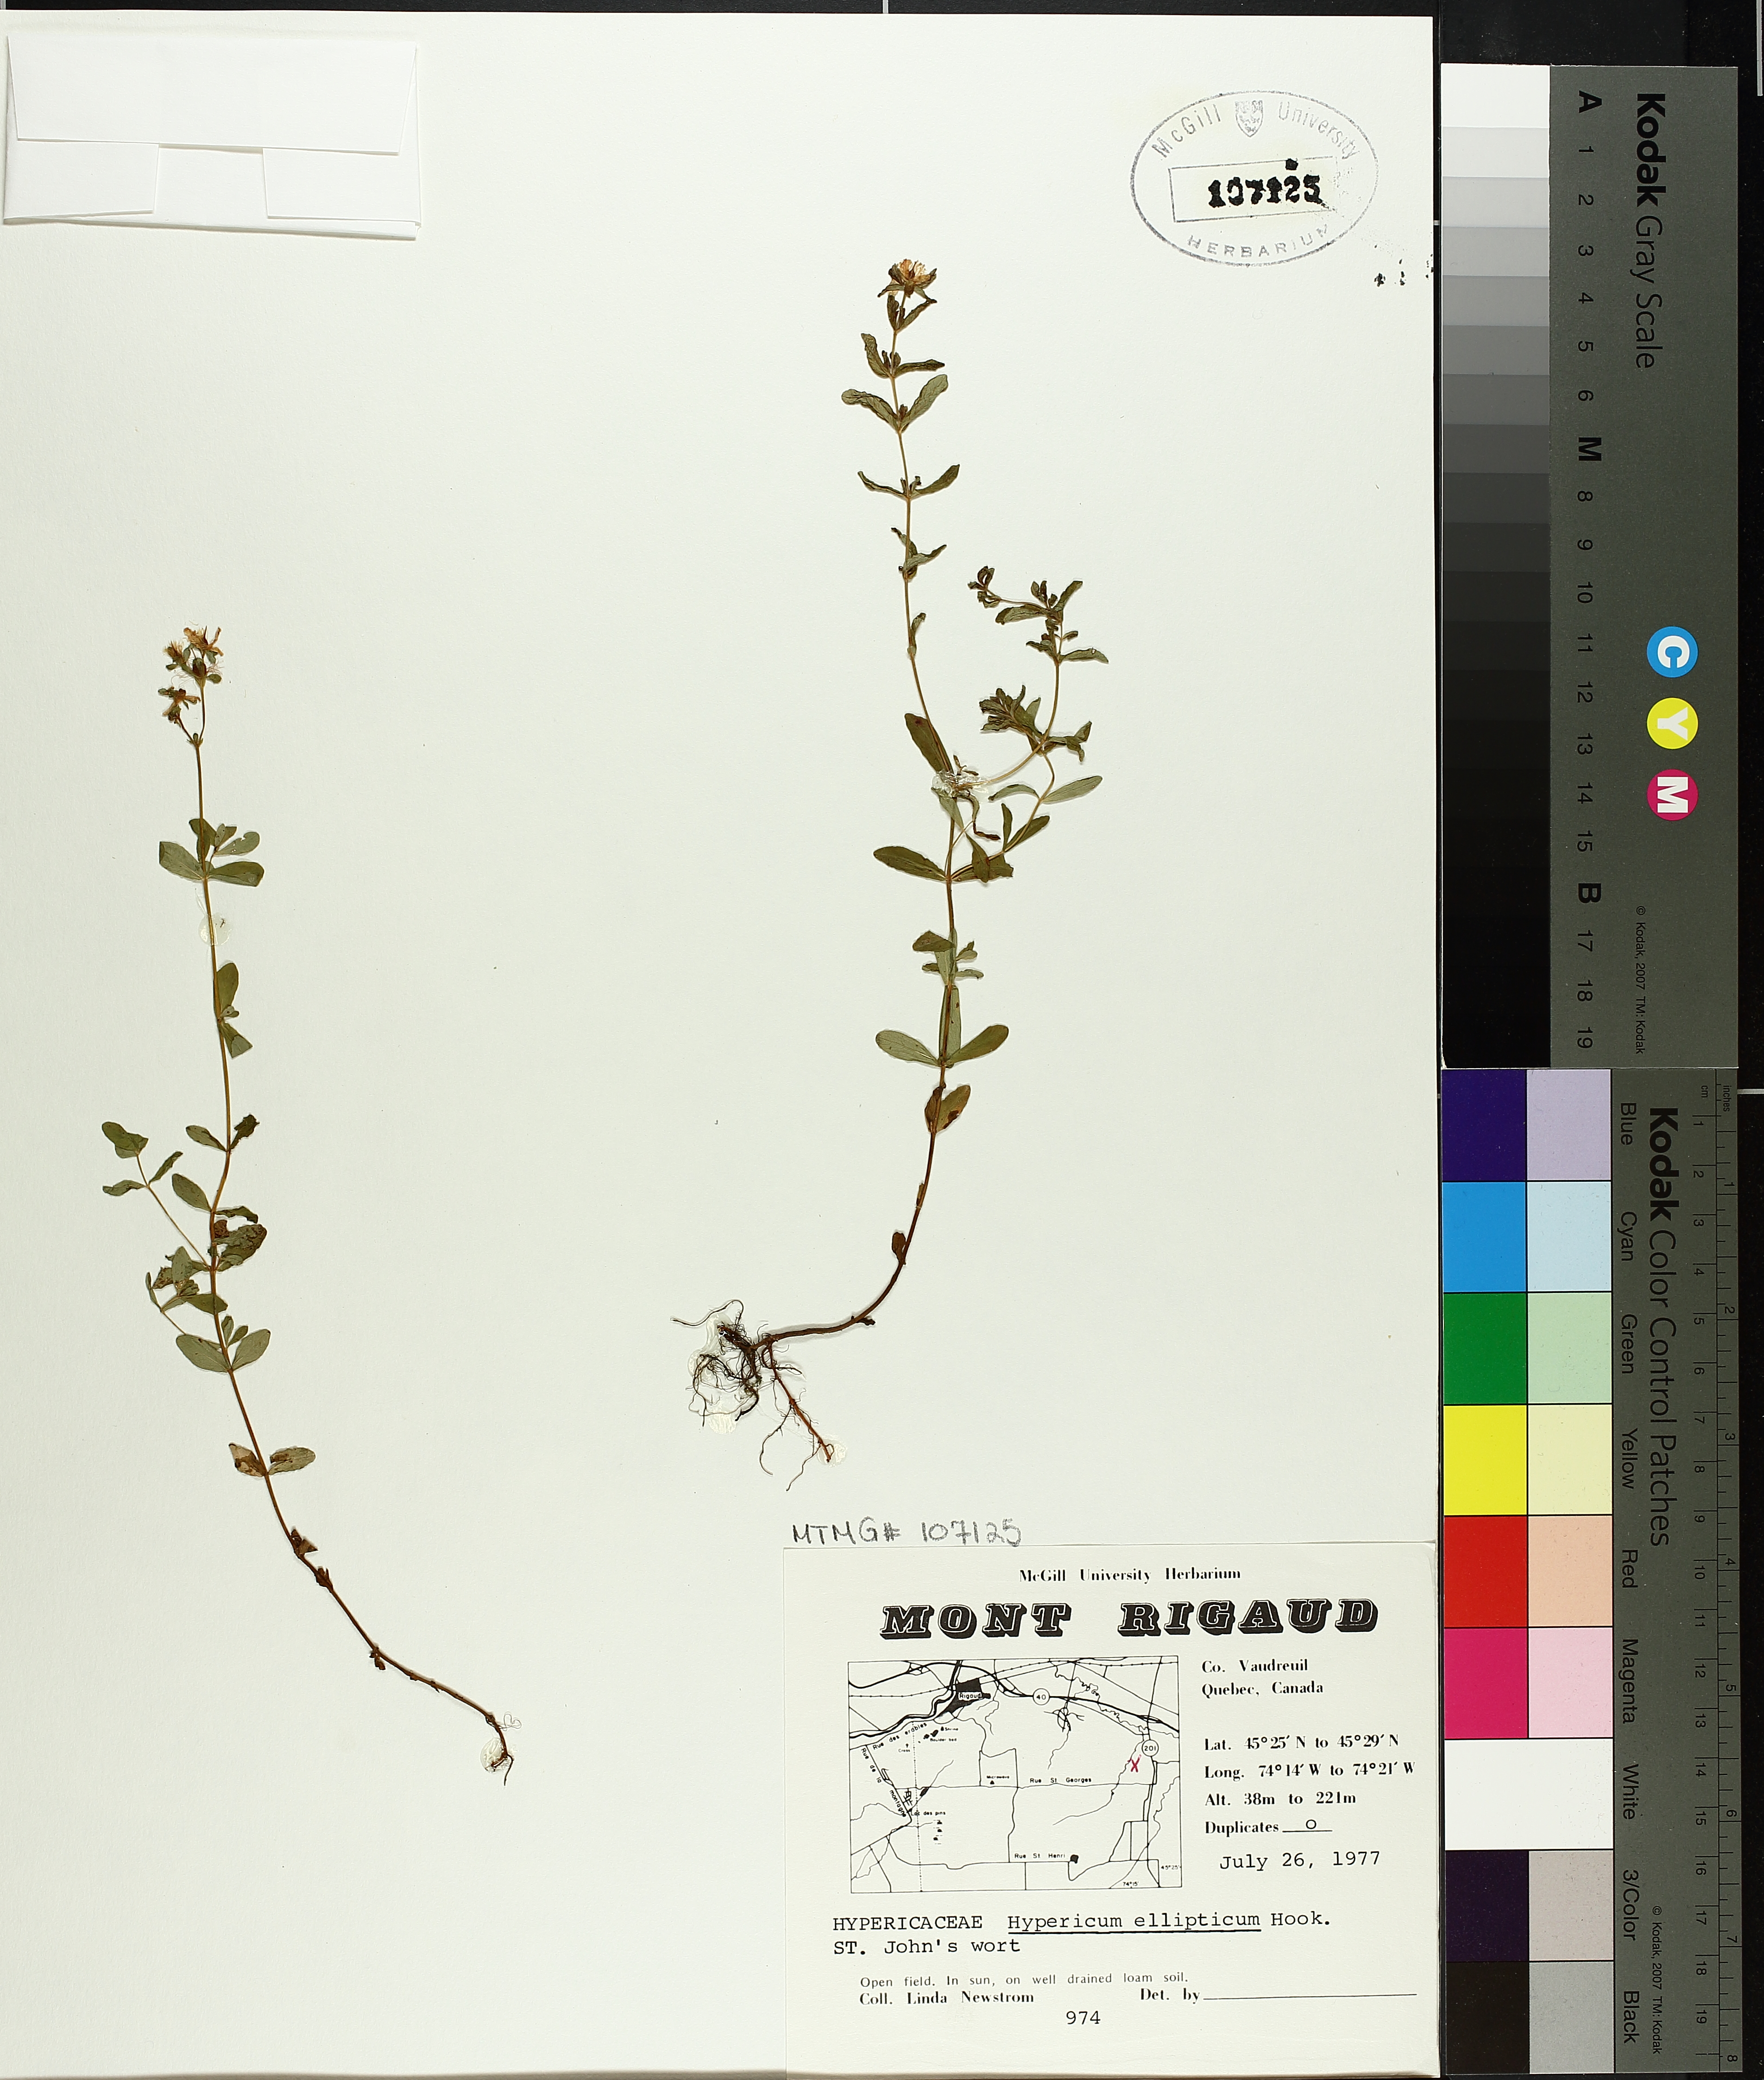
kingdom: Plantae
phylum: Tracheophyta
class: Magnoliopsida
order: Malpighiales
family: Hypericaceae
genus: Hypericum
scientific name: Hypericum ellipticum
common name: Elliptic st. john's-wort
